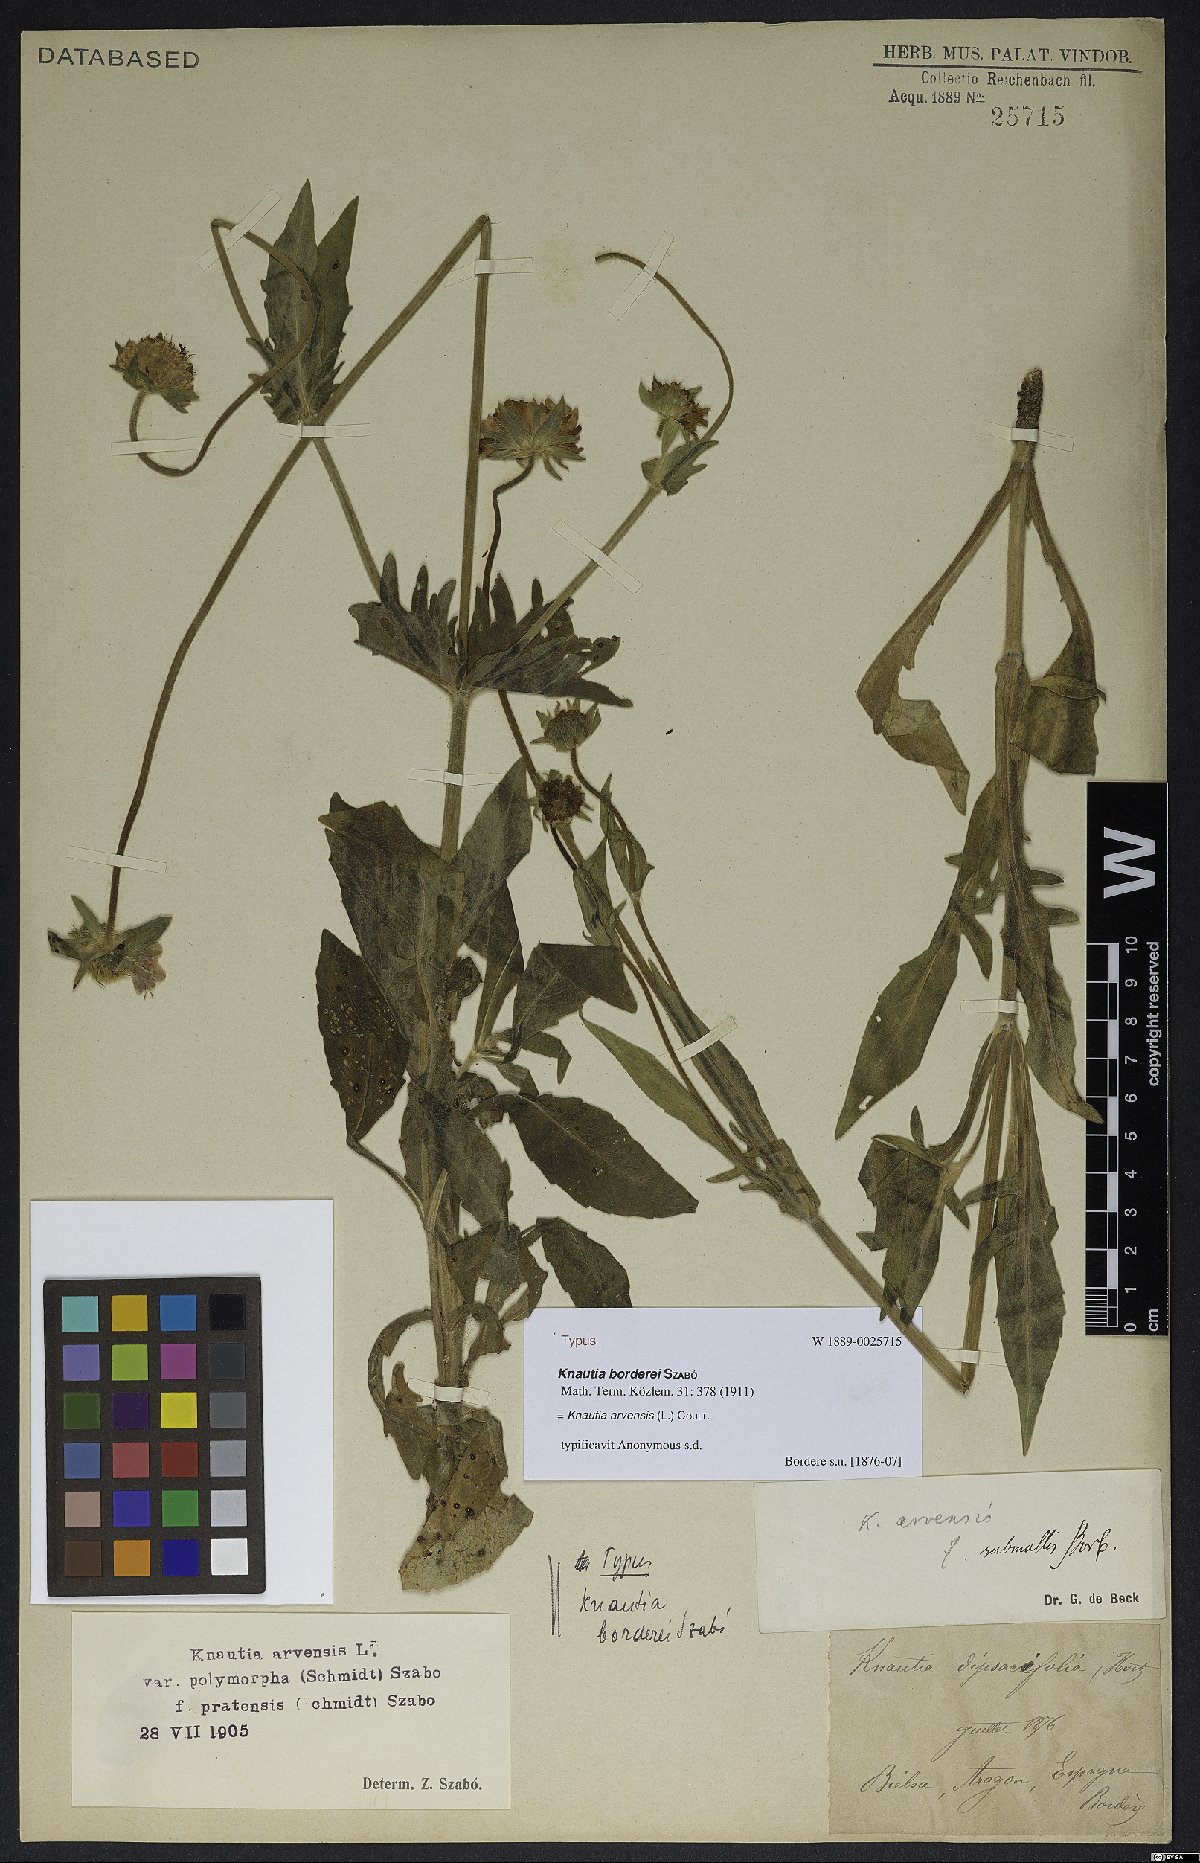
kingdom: Plantae
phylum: Tracheophyta
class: Magnoliopsida
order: Dipsacales
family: Caprifoliaceae
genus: Knautia
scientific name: Knautia arvensis
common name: Field scabiosa
